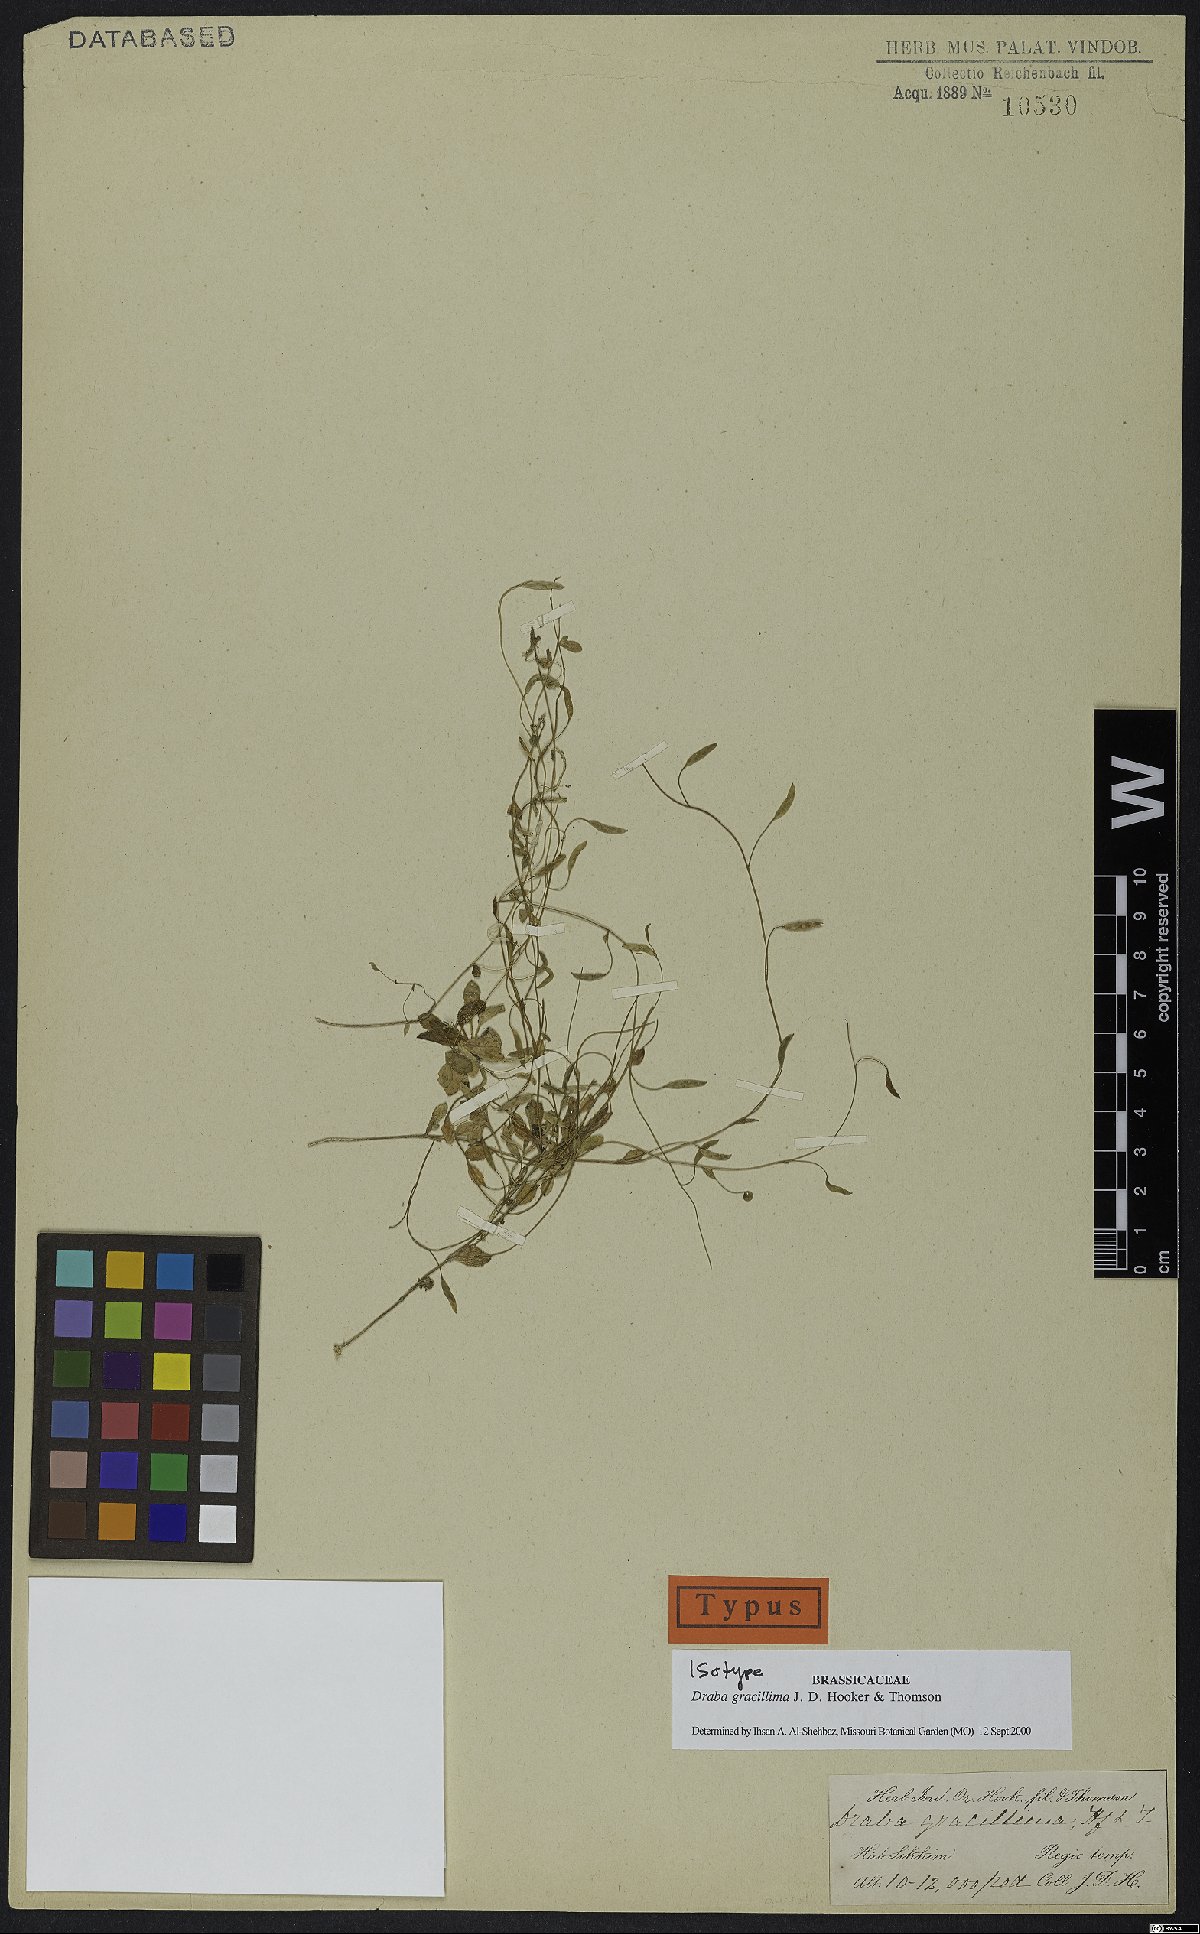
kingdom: Plantae
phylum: Tracheophyta
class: Magnoliopsida
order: Brassicales
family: Brassicaceae
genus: Draba
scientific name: Draba gracillima
